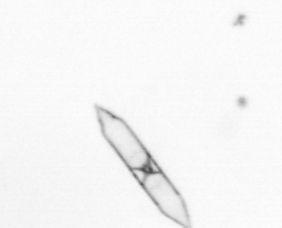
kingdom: Chromista
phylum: Ochrophyta
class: Bacillariophyceae
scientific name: Bacillariophyceae
